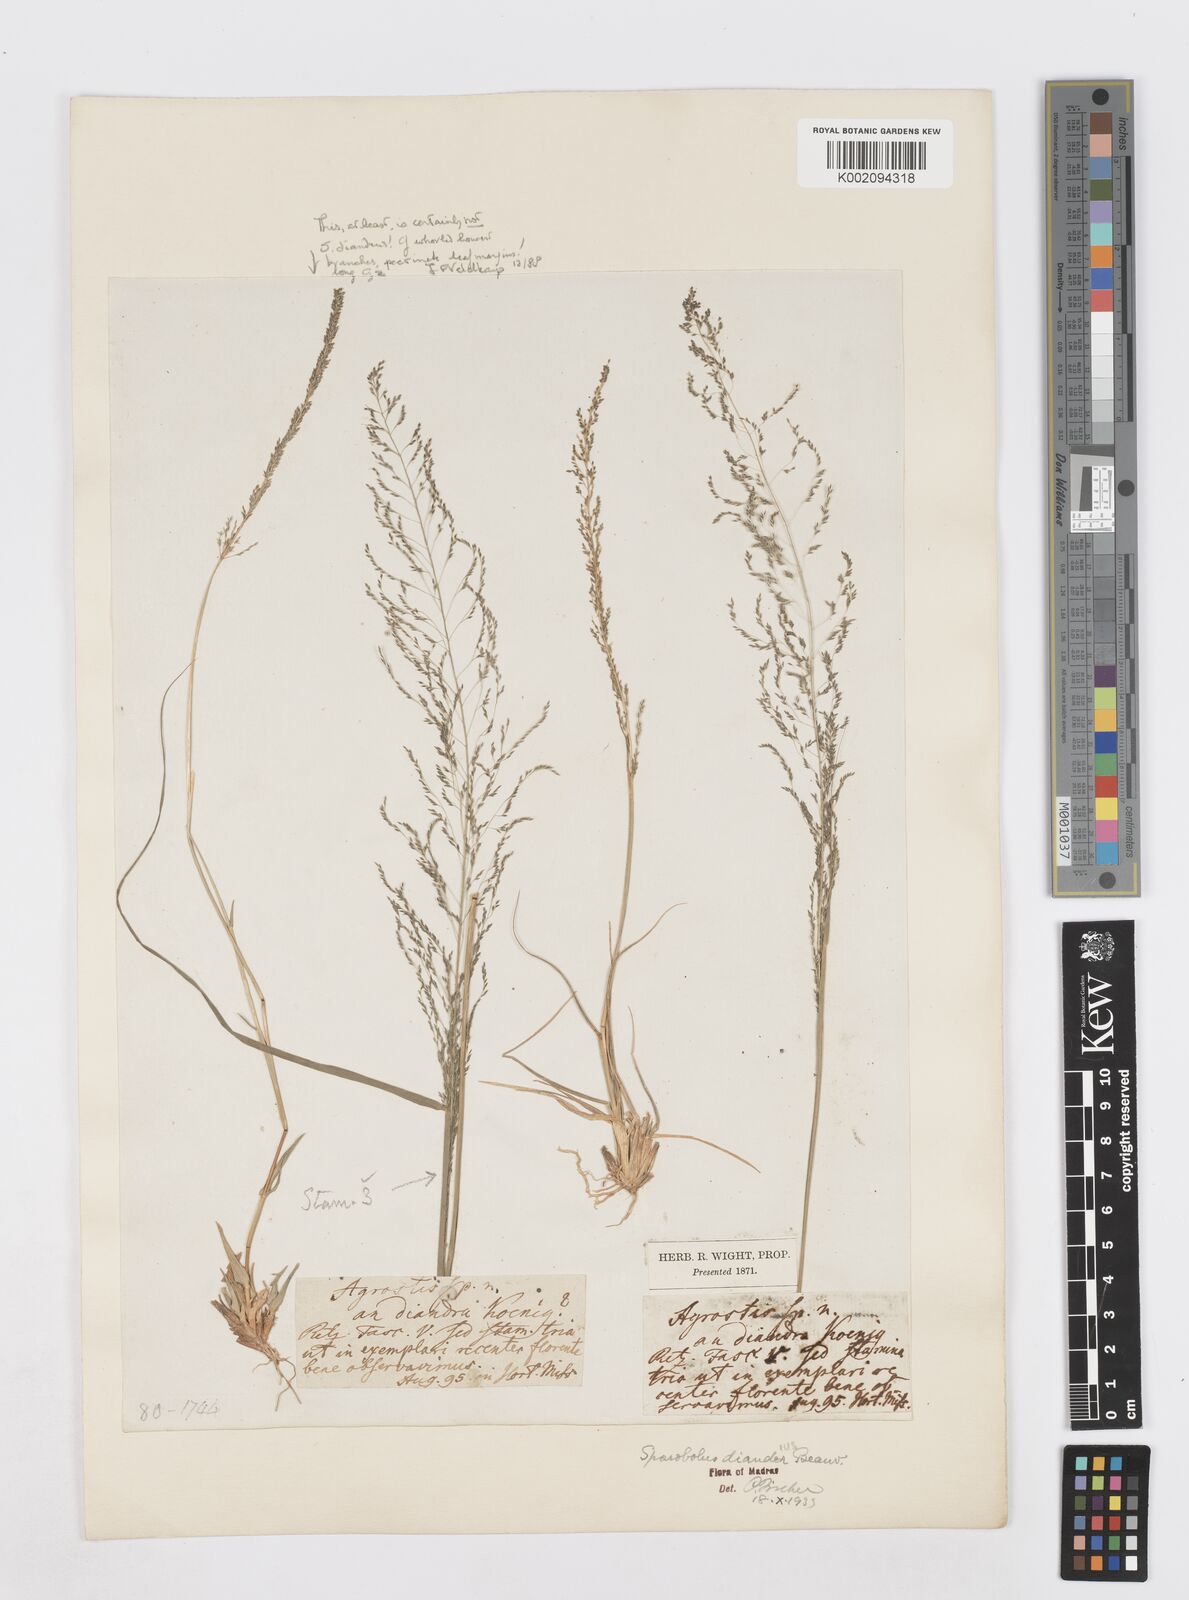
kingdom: Plantae
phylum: Tracheophyta
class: Liliopsida
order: Poales
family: Poaceae
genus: Sporobolus
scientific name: Sporobolus diandrus
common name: Tussock dropseed
